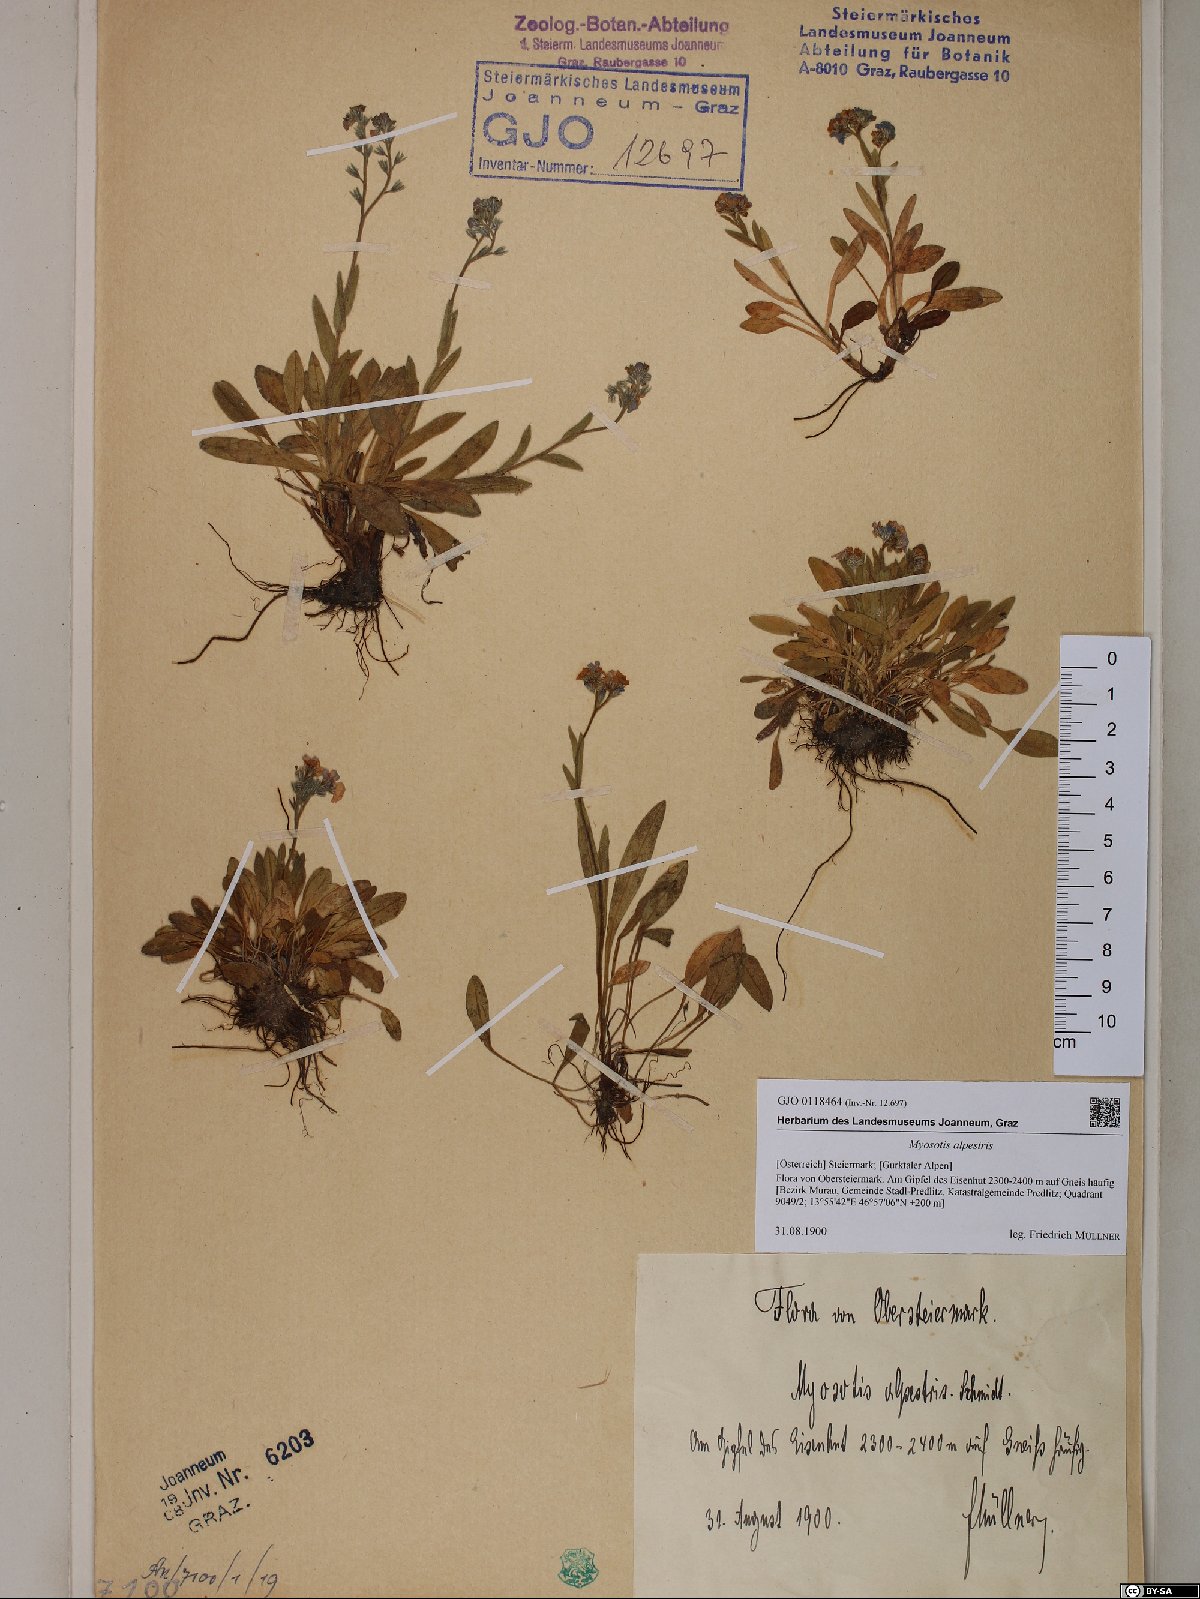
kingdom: Plantae
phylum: Tracheophyta
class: Magnoliopsida
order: Boraginales
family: Boraginaceae
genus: Myosotis
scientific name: Myosotis alpestris
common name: Alpine forget-me-not
